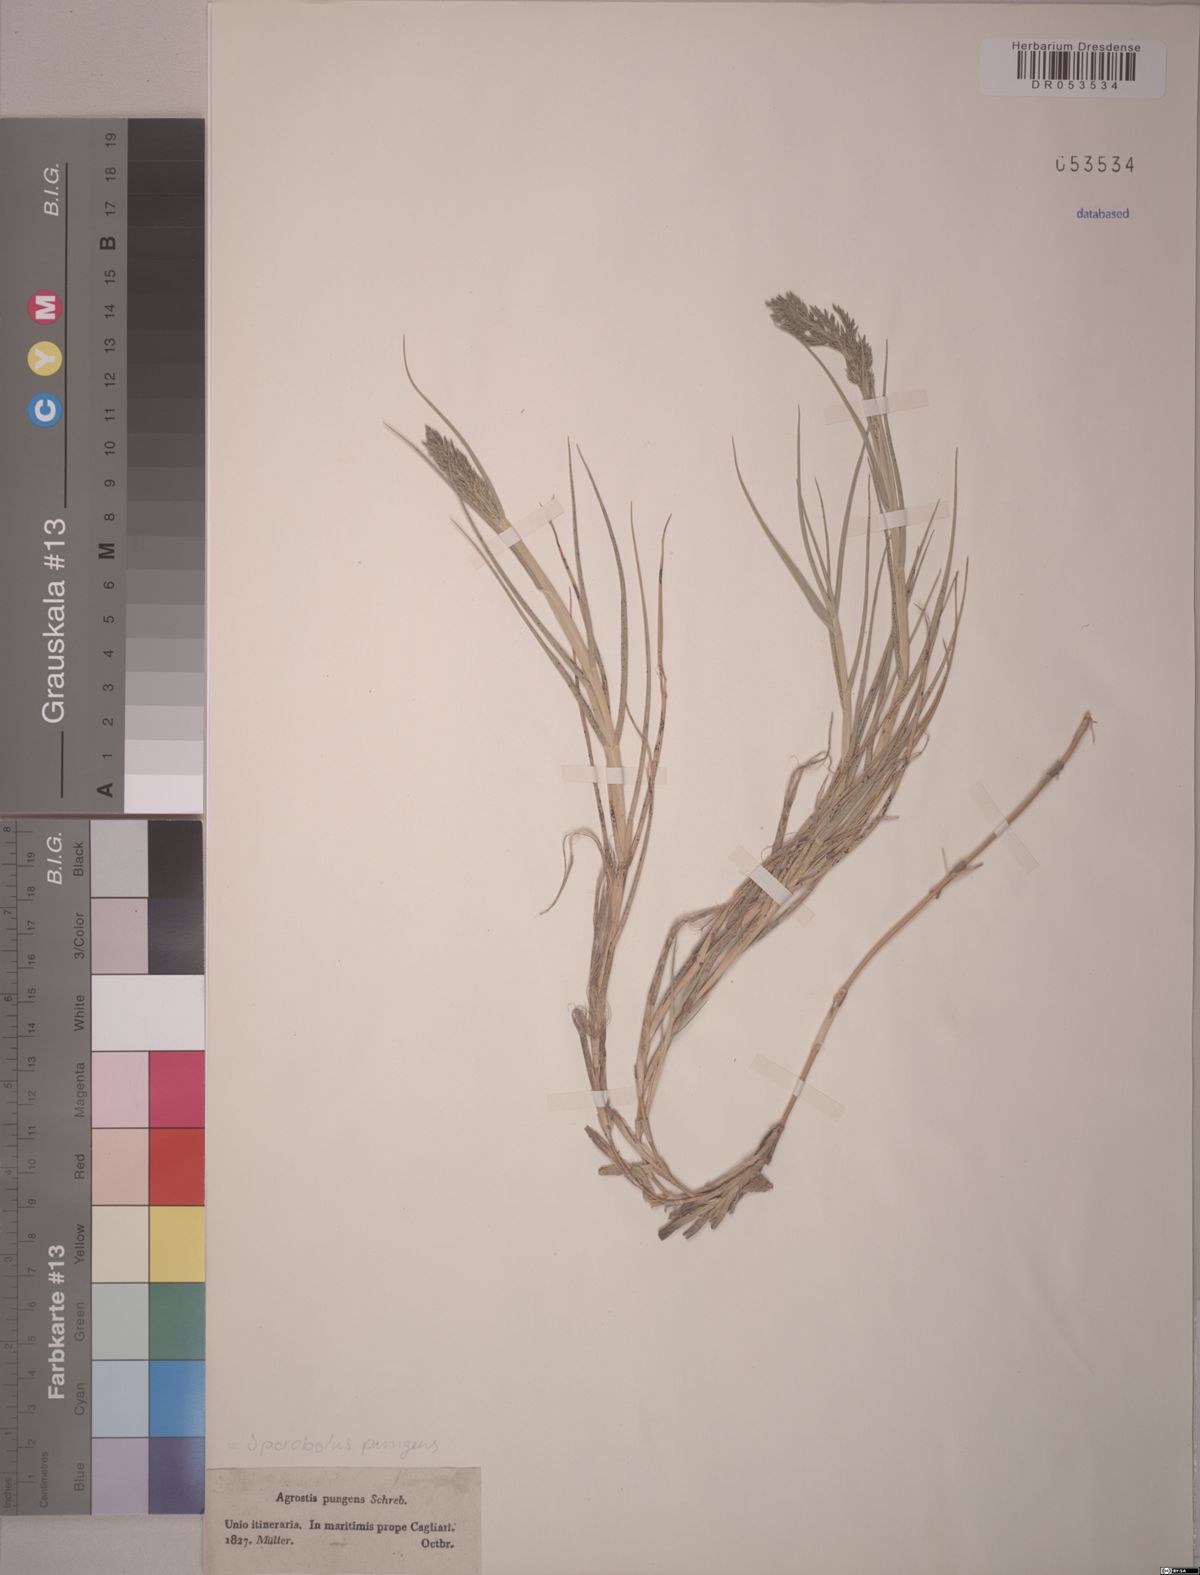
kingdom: Plantae
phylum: Tracheophyta
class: Liliopsida
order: Poales
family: Poaceae
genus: Sporobolus
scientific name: Sporobolus pungens
